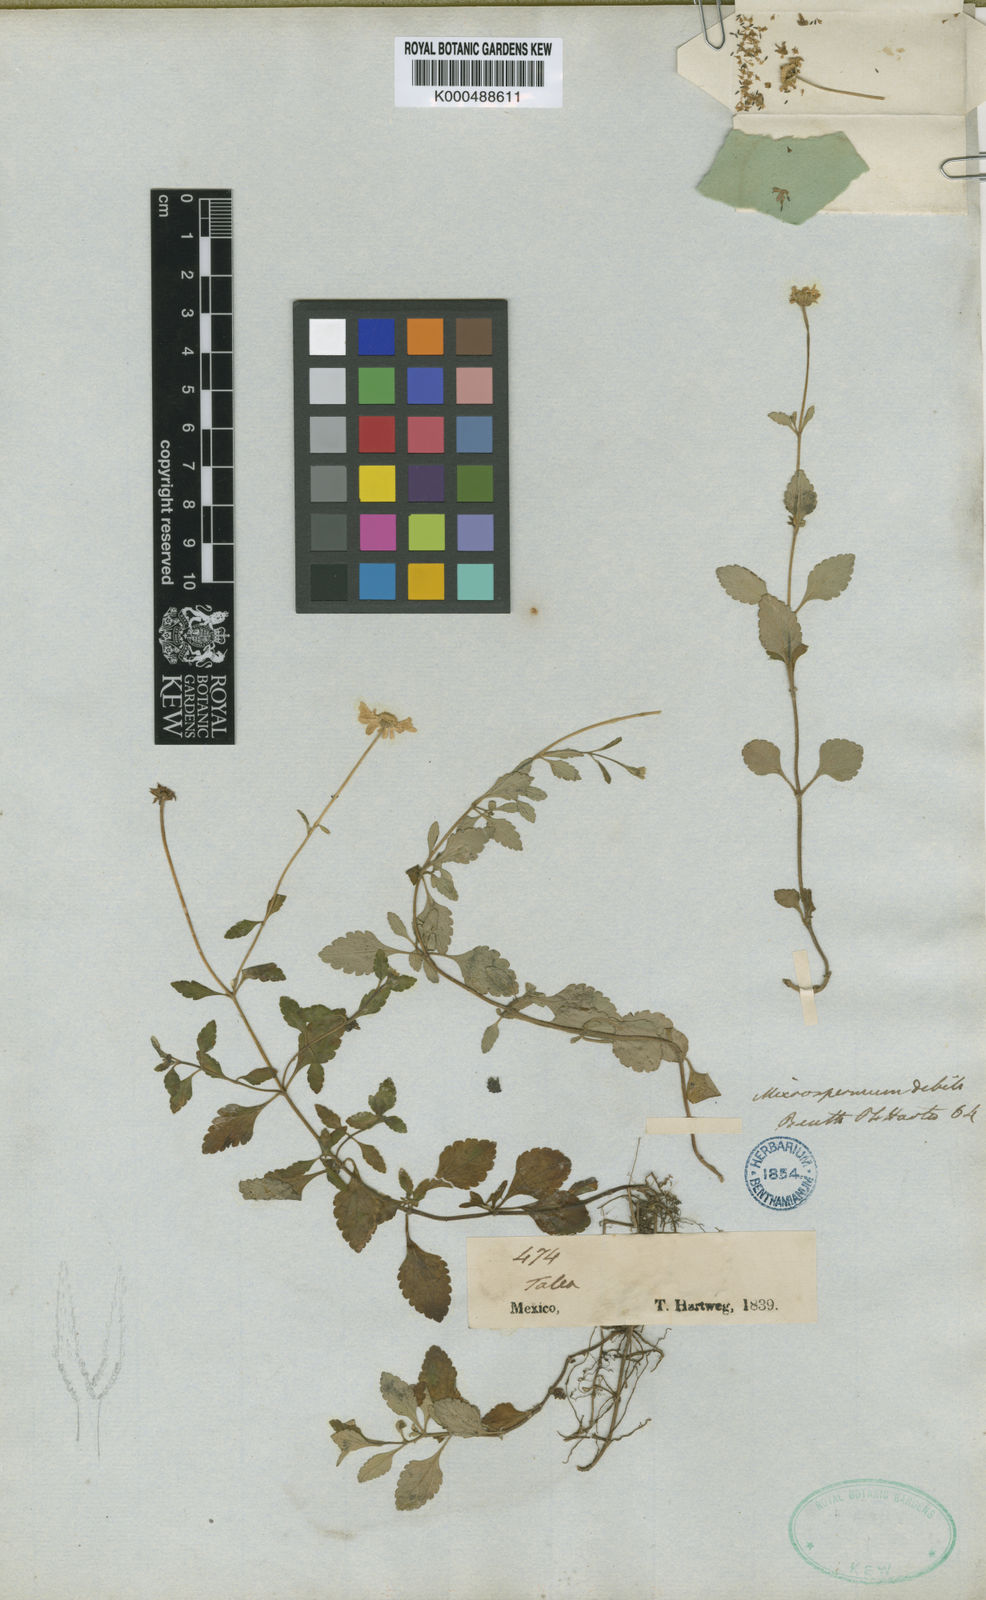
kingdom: Plantae
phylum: Tracheophyta
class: Magnoliopsida
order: Asterales
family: Asteraceae
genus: Microspermum
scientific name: Microspermum debile
